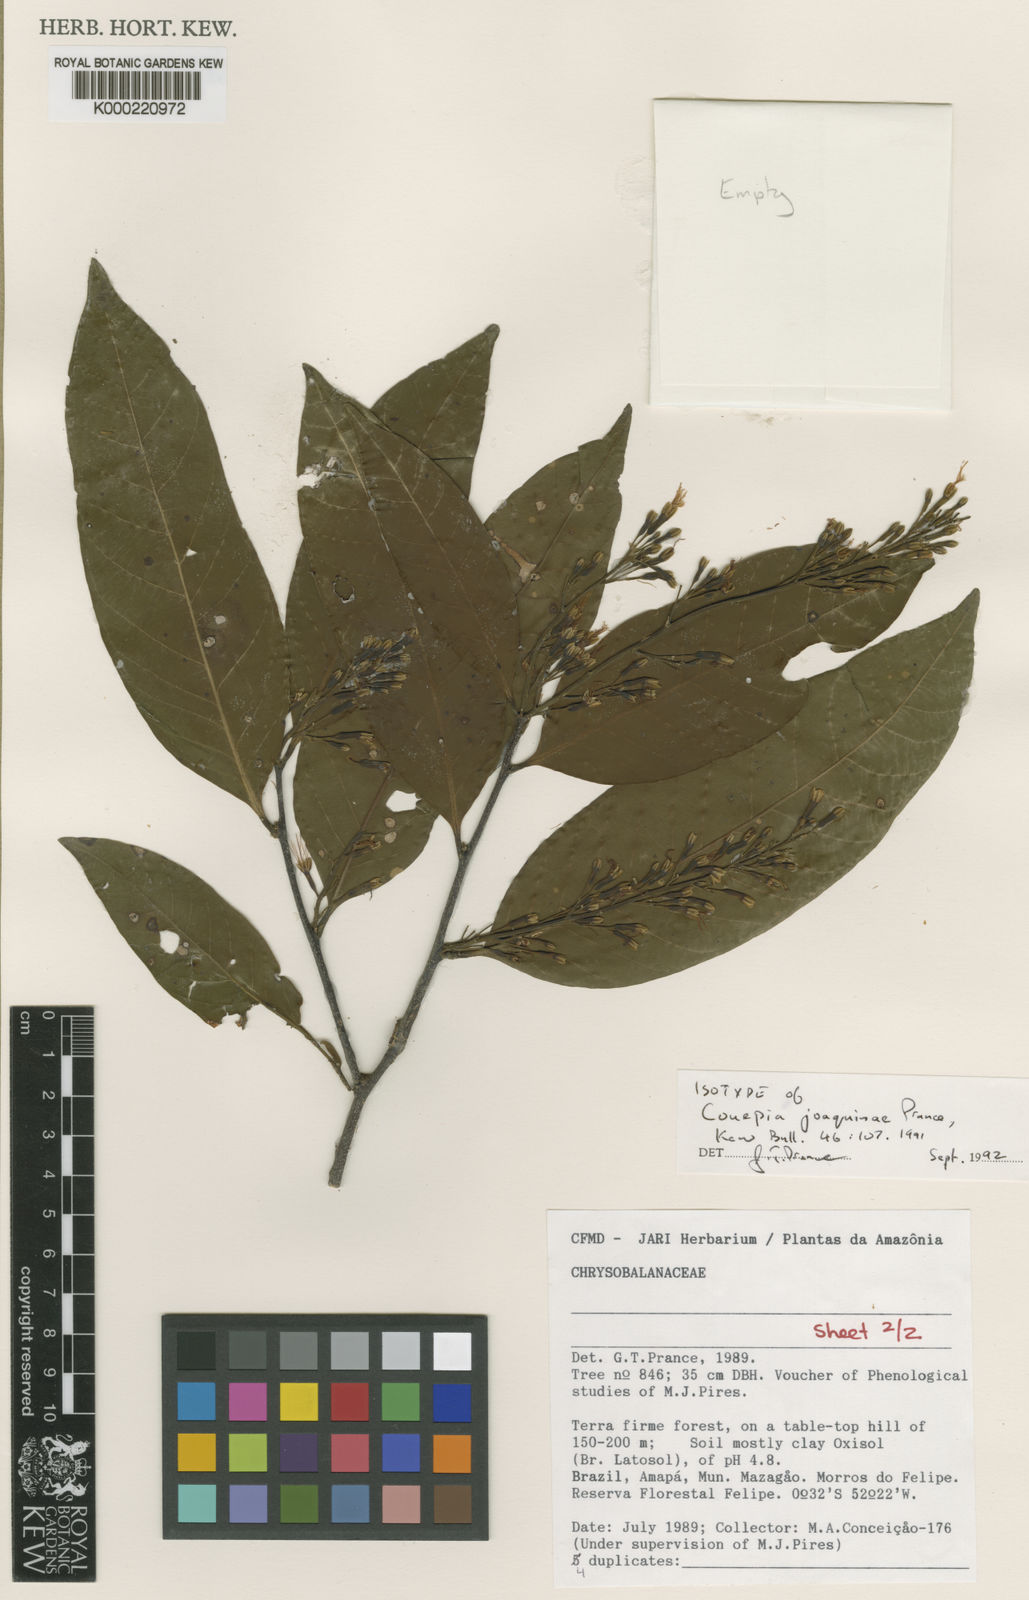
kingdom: Plantae
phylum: Tracheophyta
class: Magnoliopsida
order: Malpighiales
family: Chrysobalanaceae
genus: Couepia
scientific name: Couepia joaquinae
